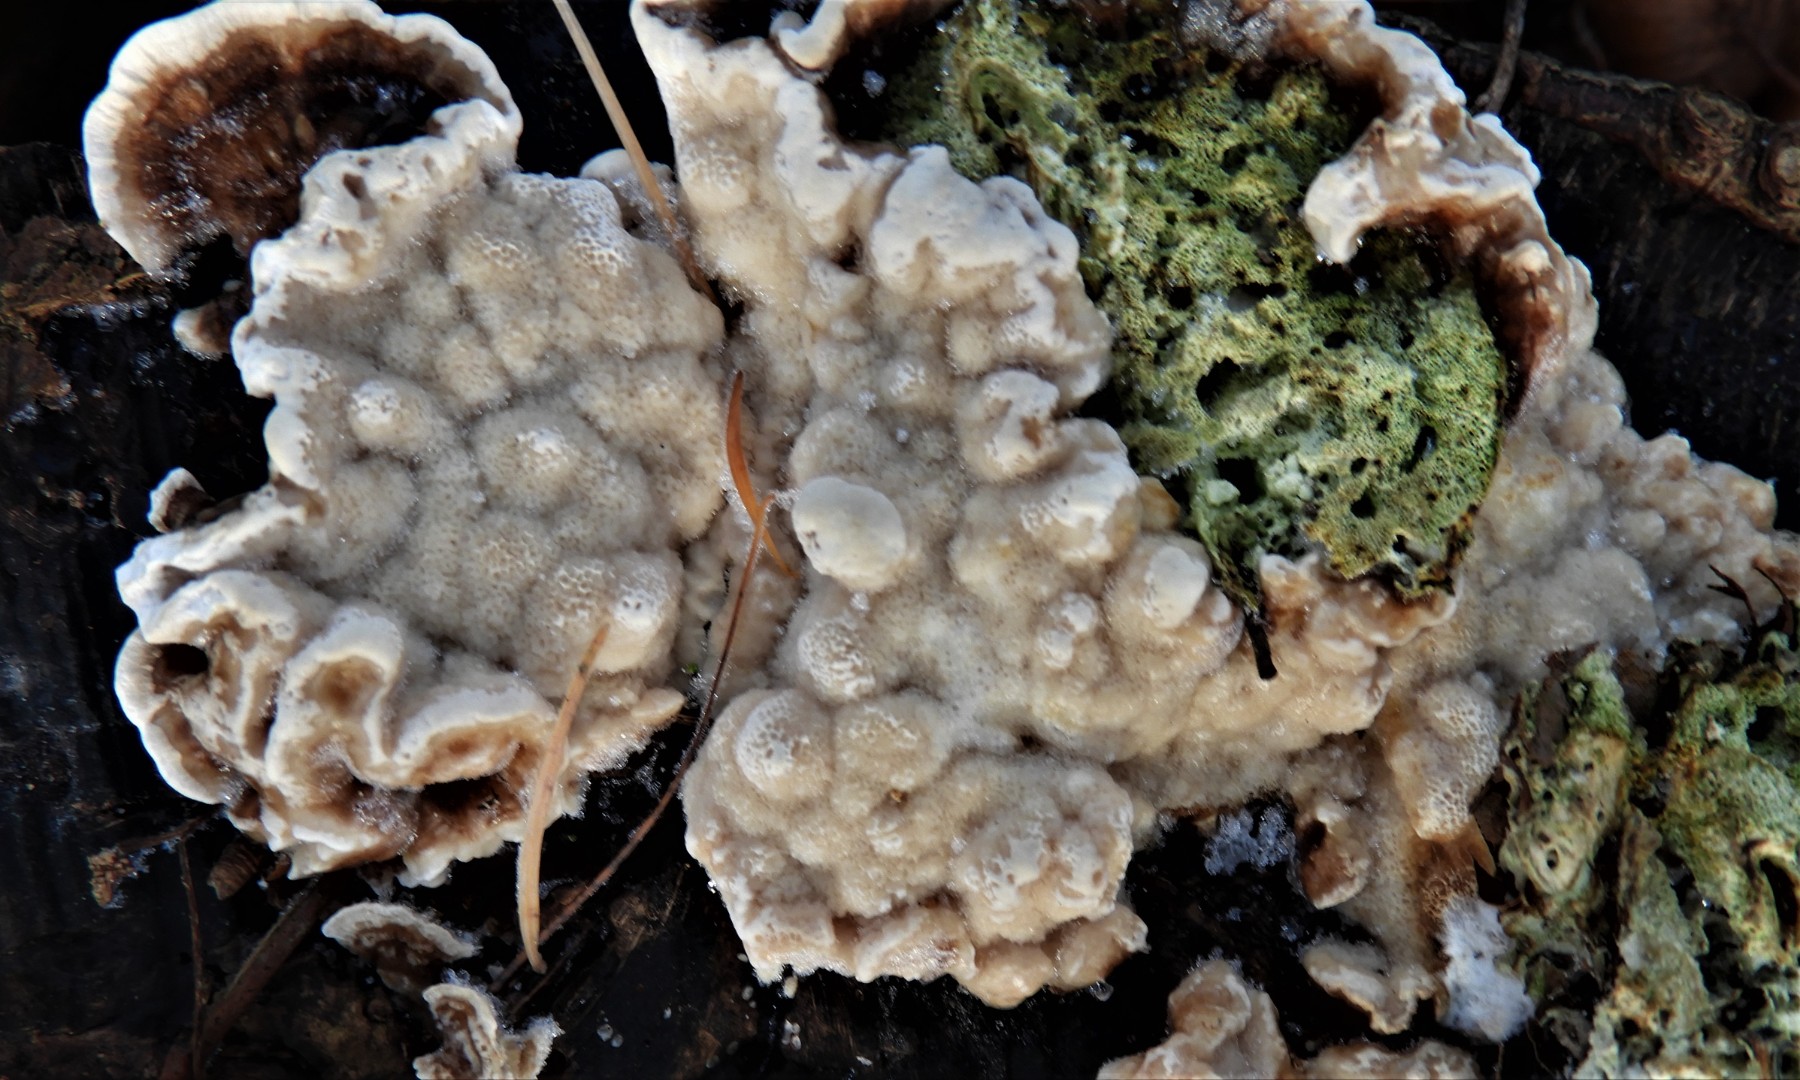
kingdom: Fungi
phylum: Basidiomycota
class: Agaricomycetes
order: Polyporales
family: Polyporaceae
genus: Trametes
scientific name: Trametes versicolor
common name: broget læderporesvamp
